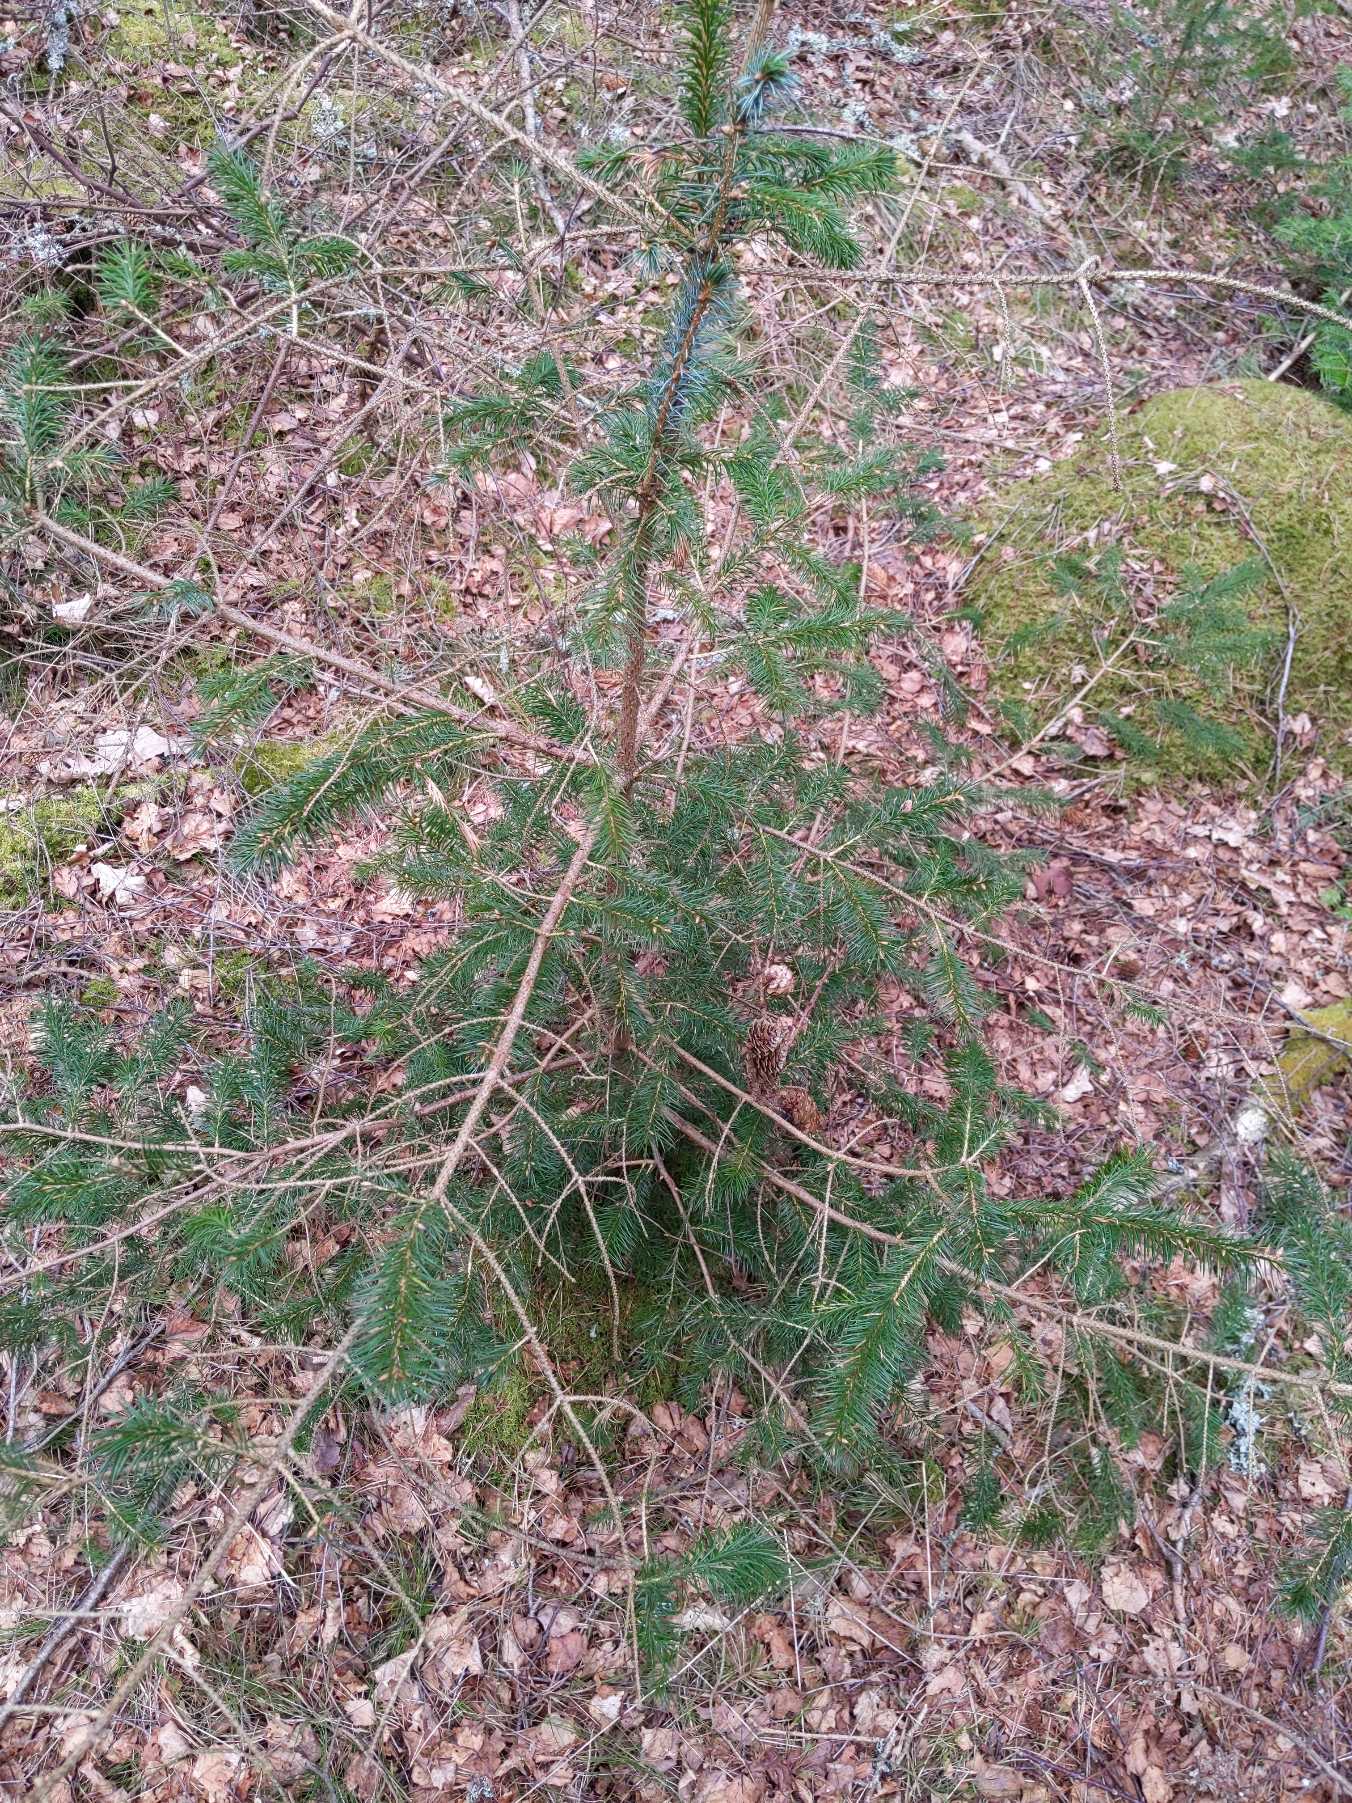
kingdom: Plantae
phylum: Tracheophyta
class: Pinopsida
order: Pinales
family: Pinaceae
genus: Picea
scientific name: Picea sitchensis
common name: Sitka-gran
